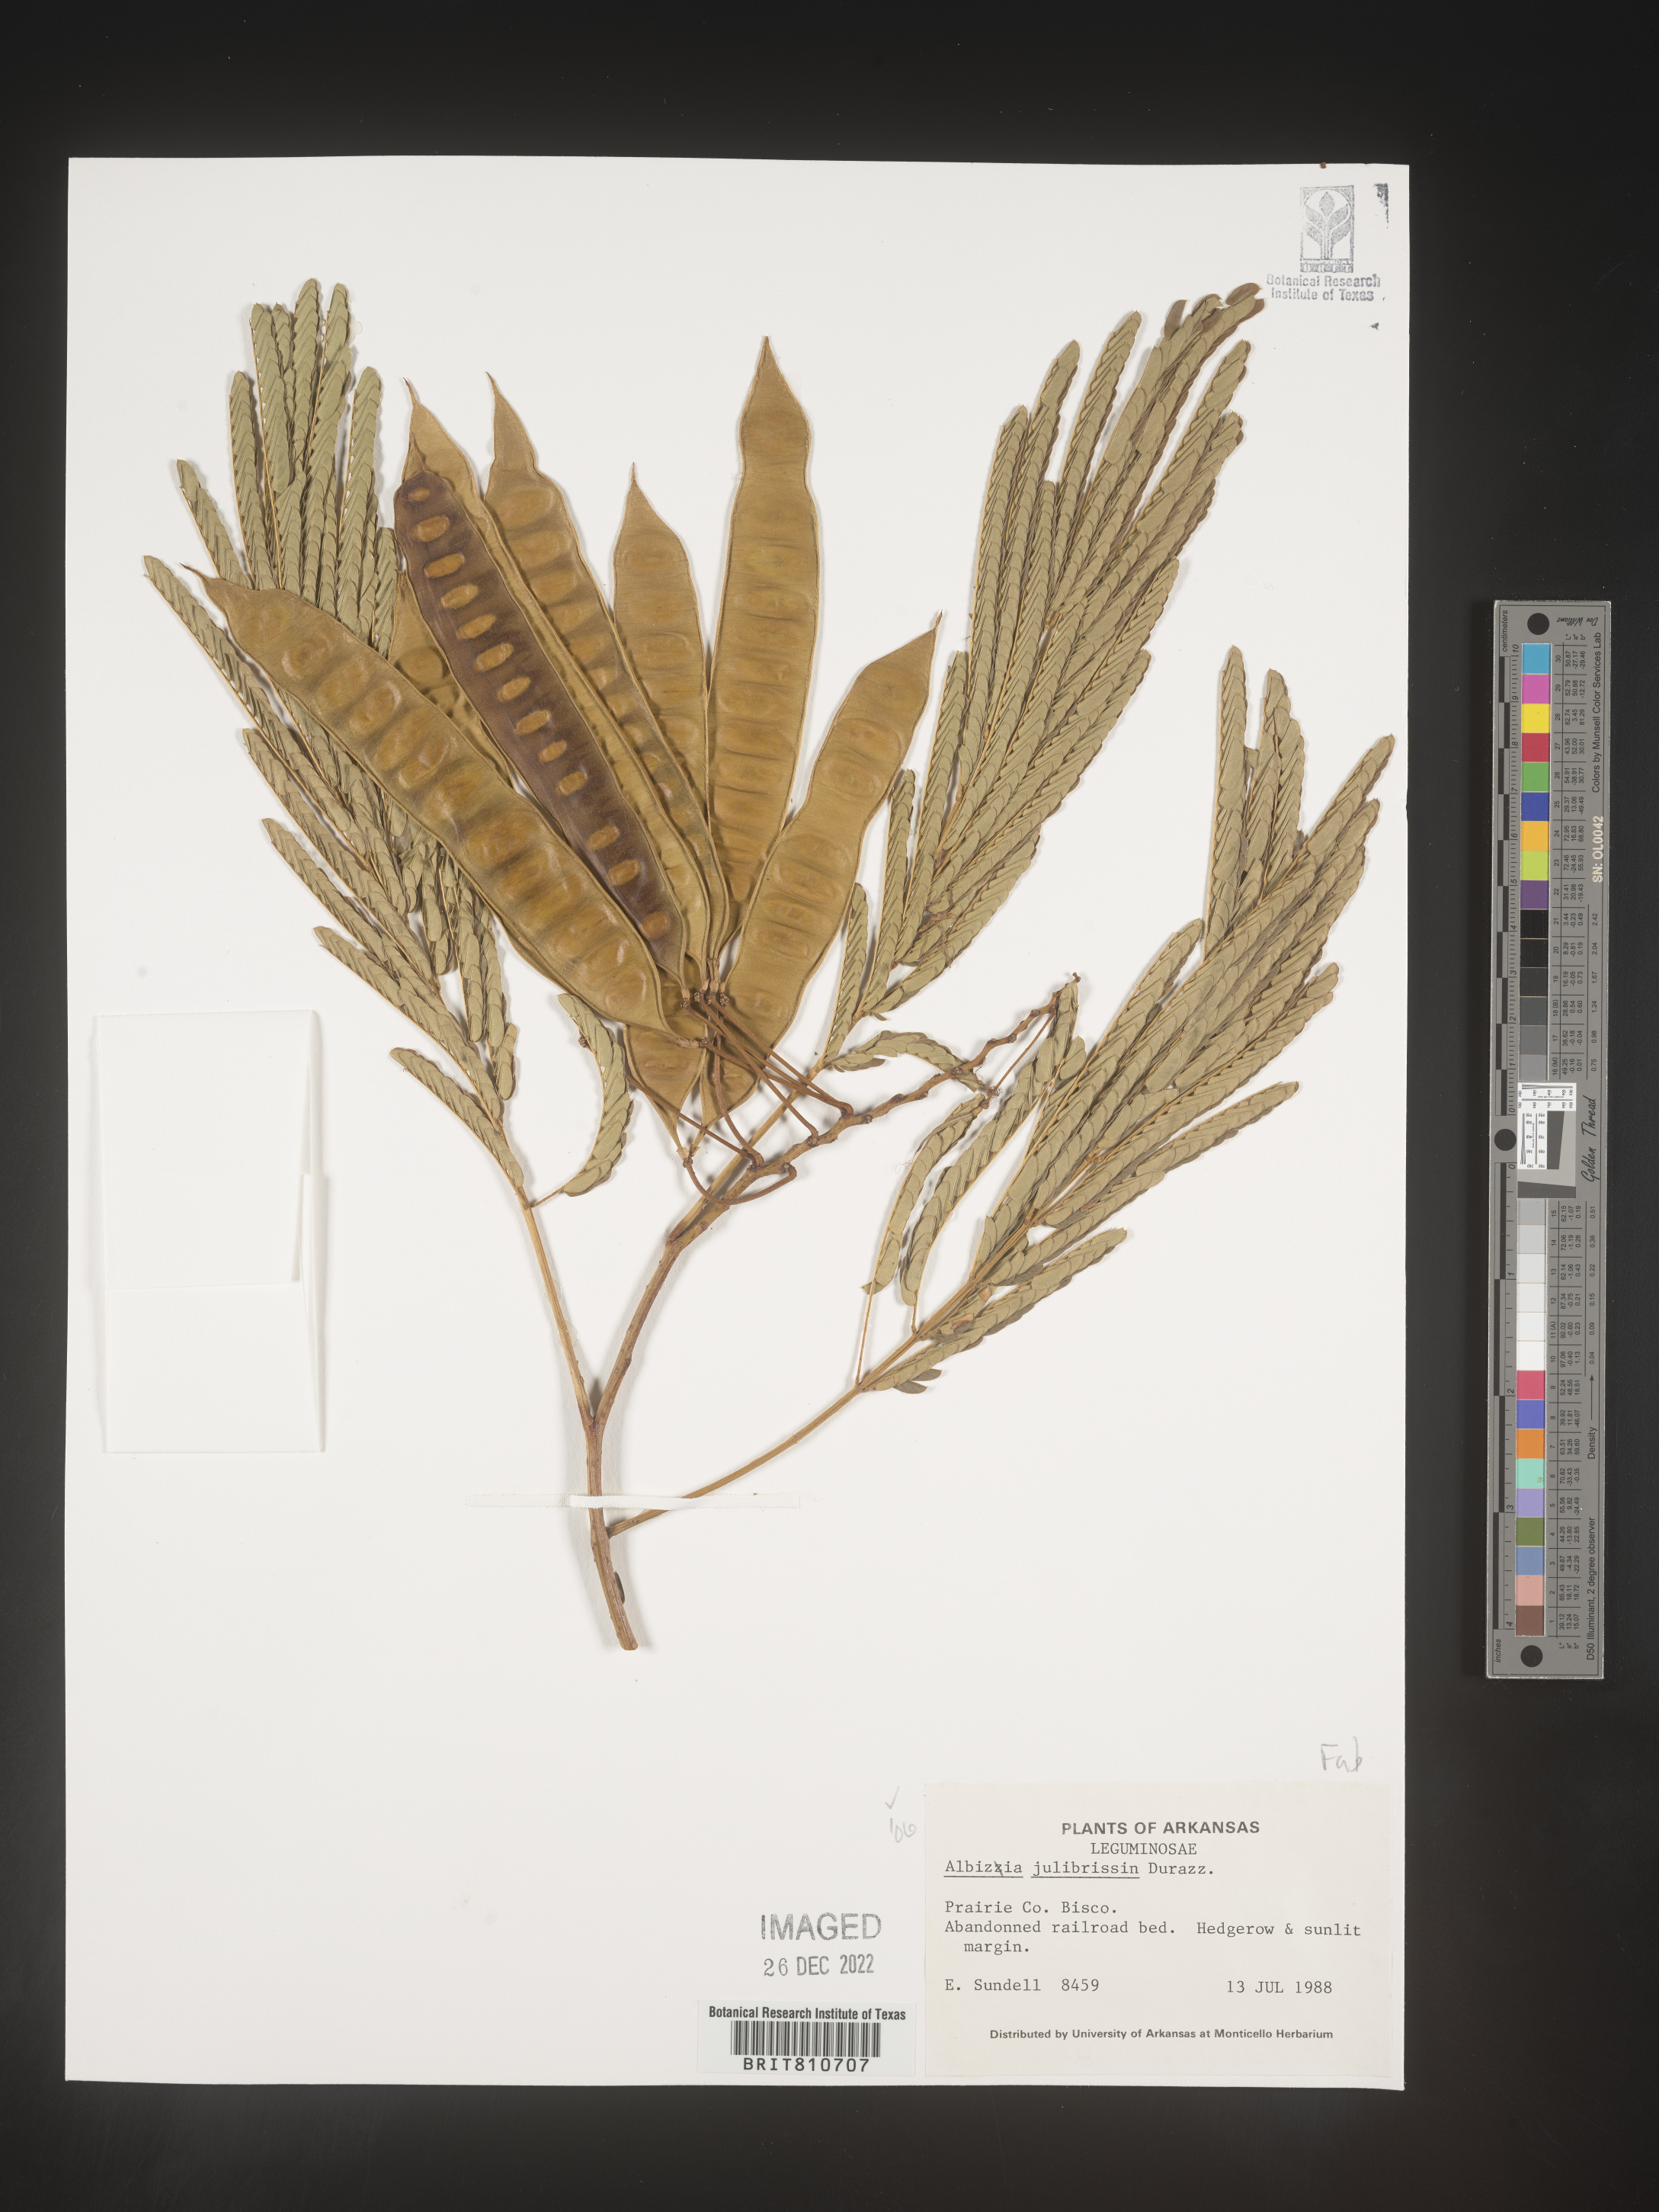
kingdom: Plantae
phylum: Tracheophyta
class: Magnoliopsida
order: Fabales
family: Fabaceae
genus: Albizia
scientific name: Albizia
